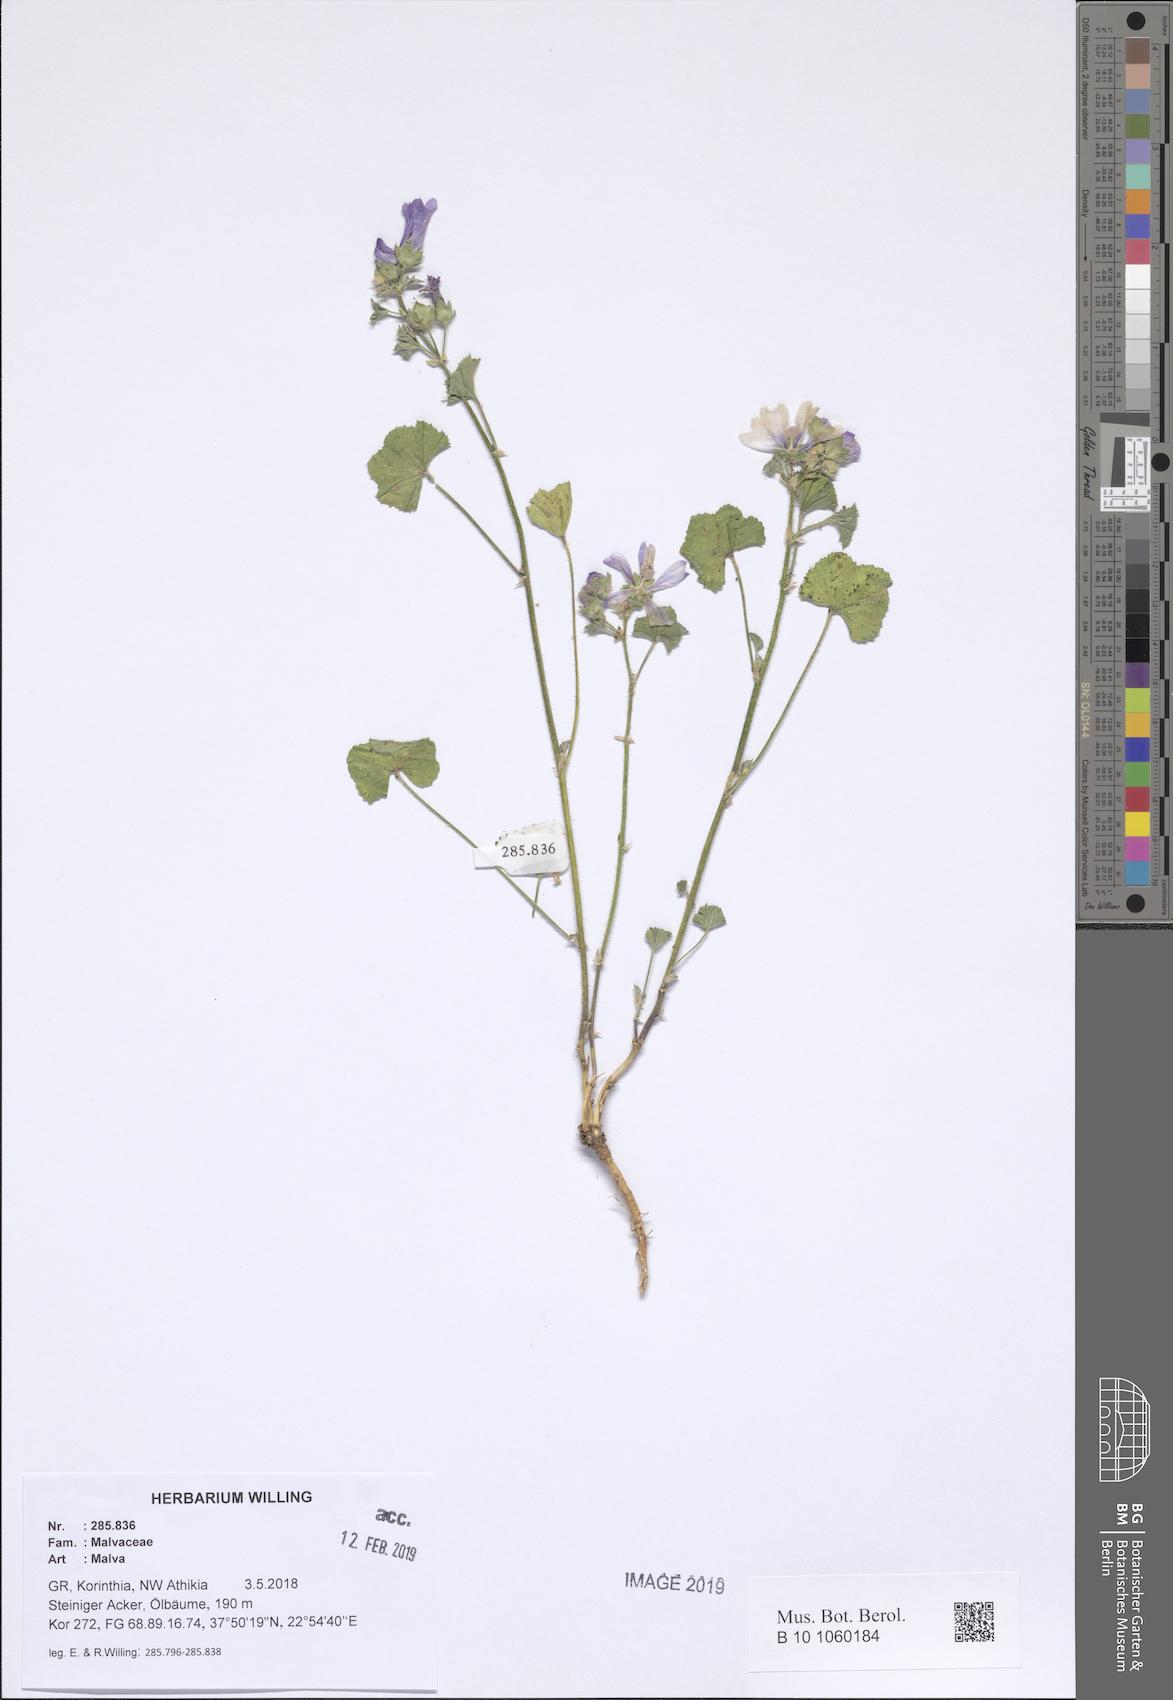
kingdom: Plantae
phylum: Tracheophyta
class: Magnoliopsida
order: Malvales
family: Malvaceae
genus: Malva
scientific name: Malva
